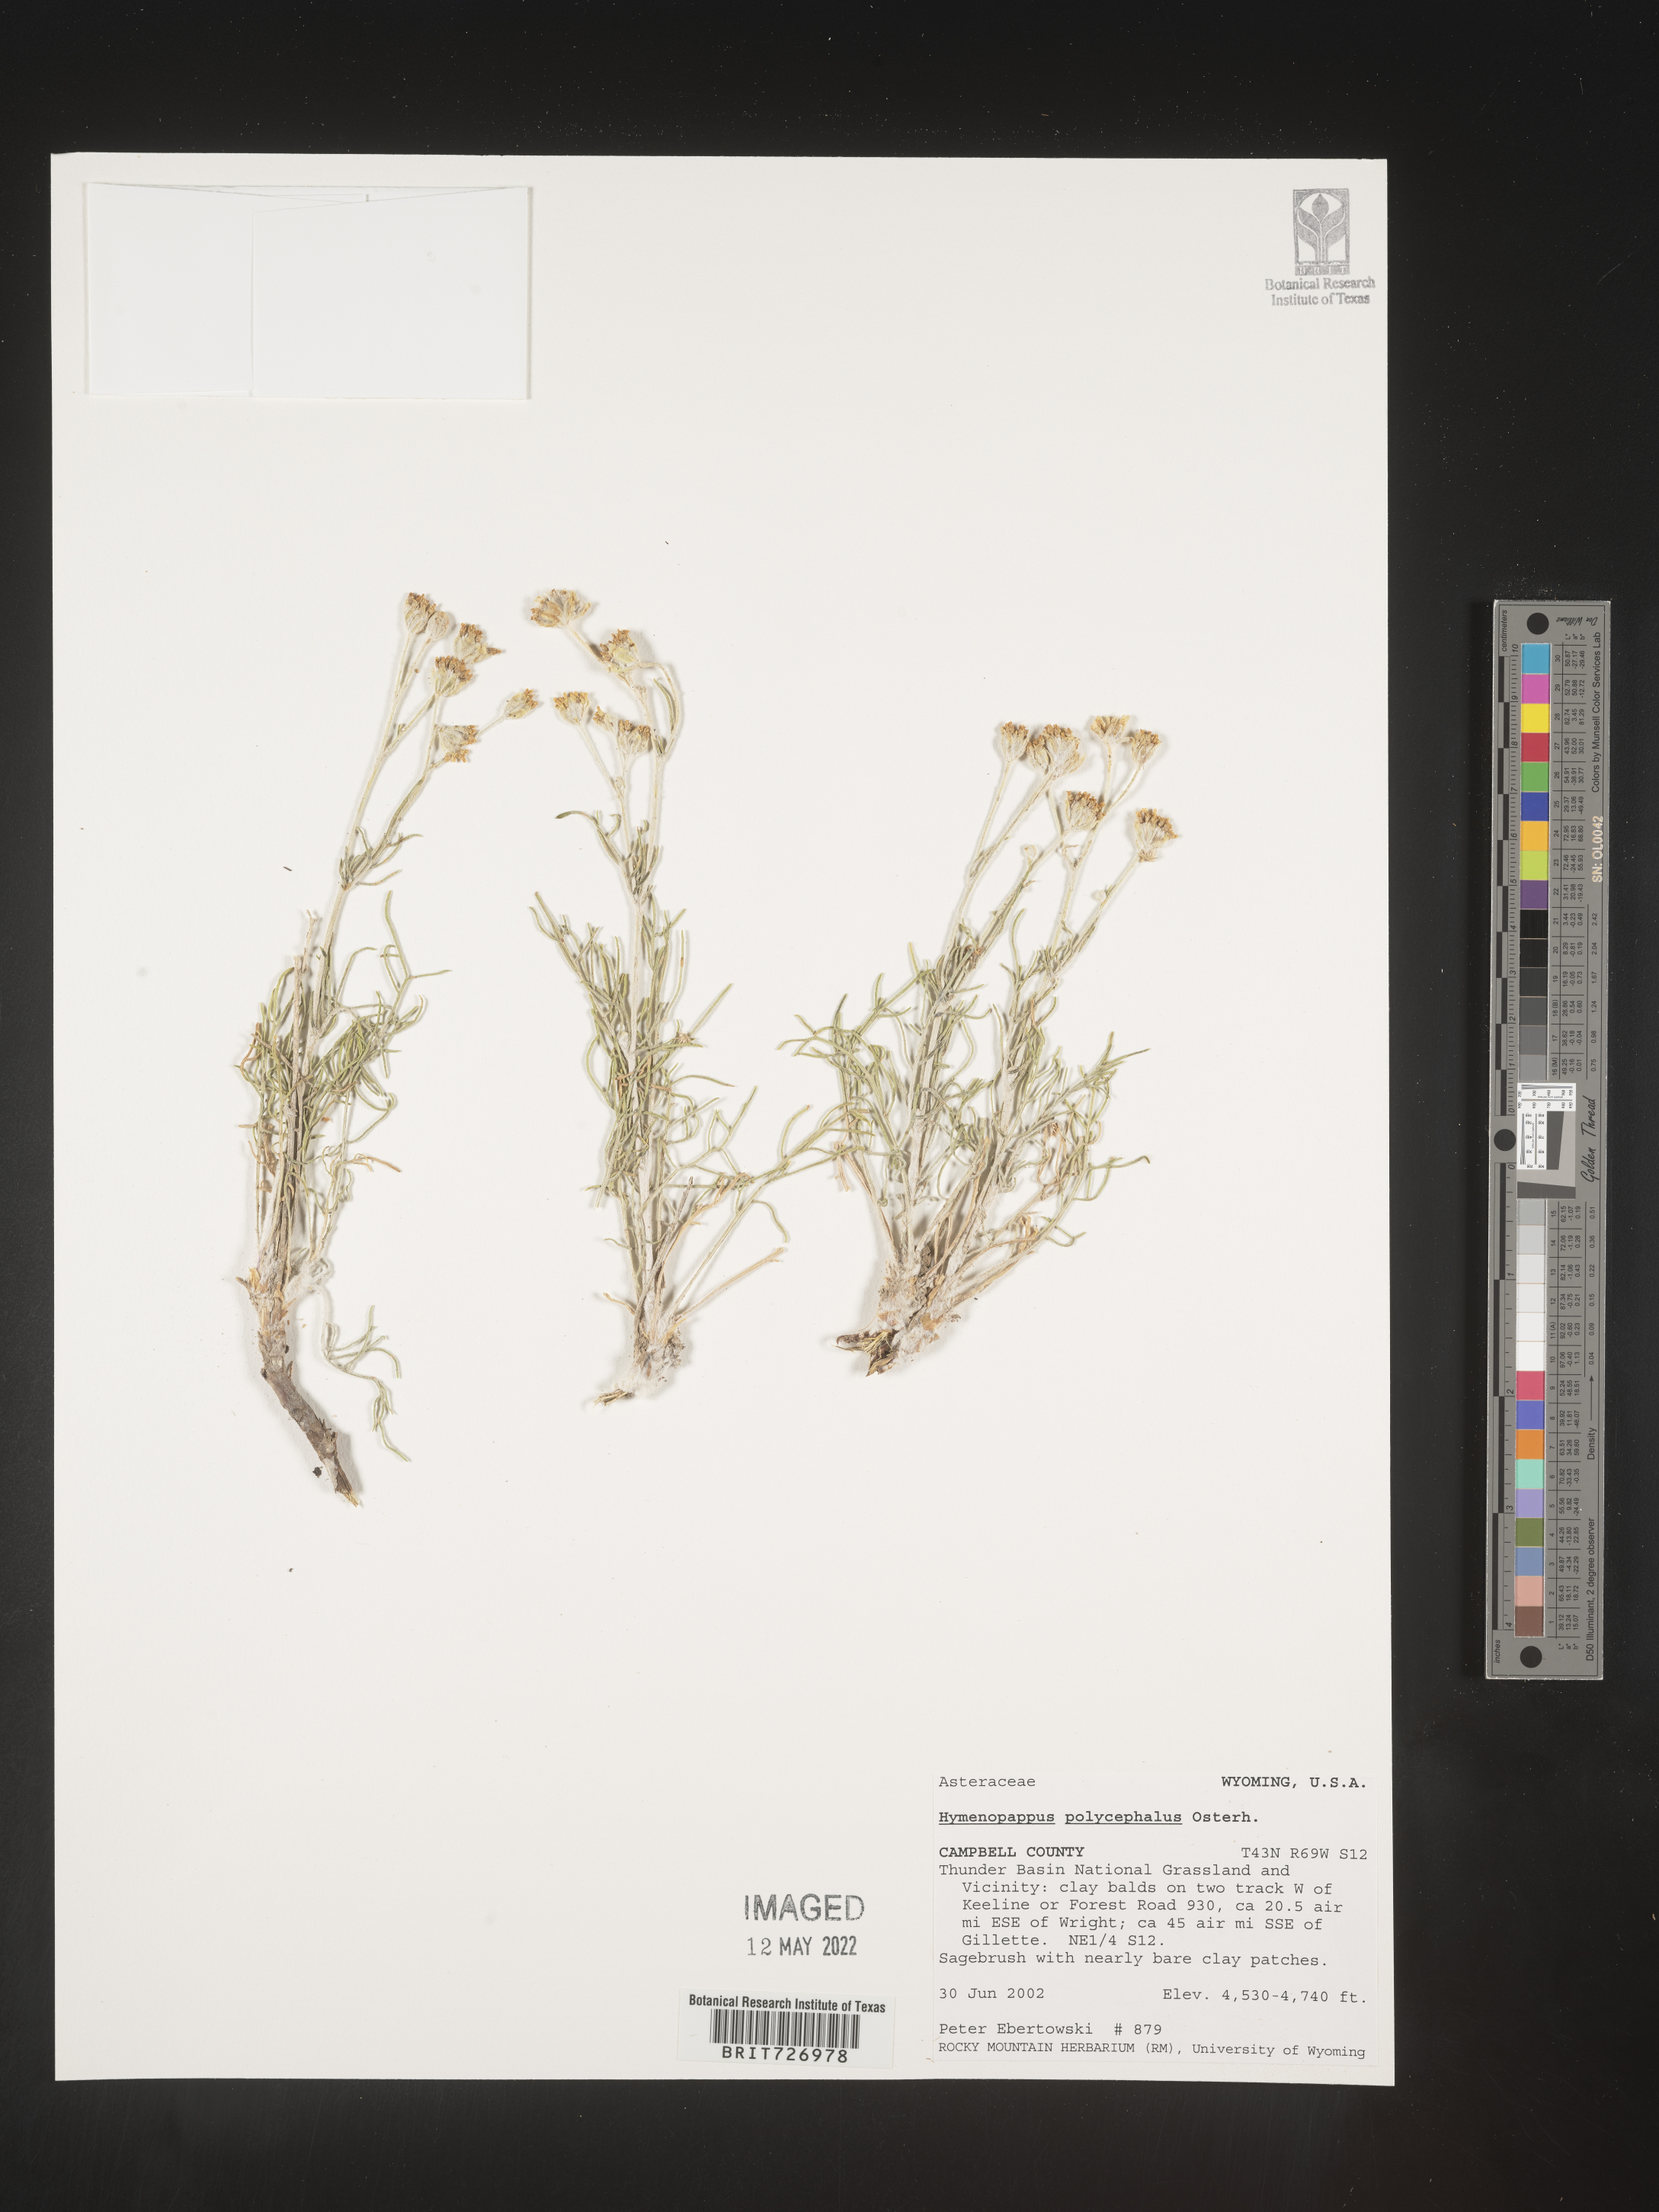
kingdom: Plantae
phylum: Tracheophyta
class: Magnoliopsida
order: Asterales
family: Asteraceae
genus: Hymenopappus
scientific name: Hymenopappus filifolius
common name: Columbia cutleaf
